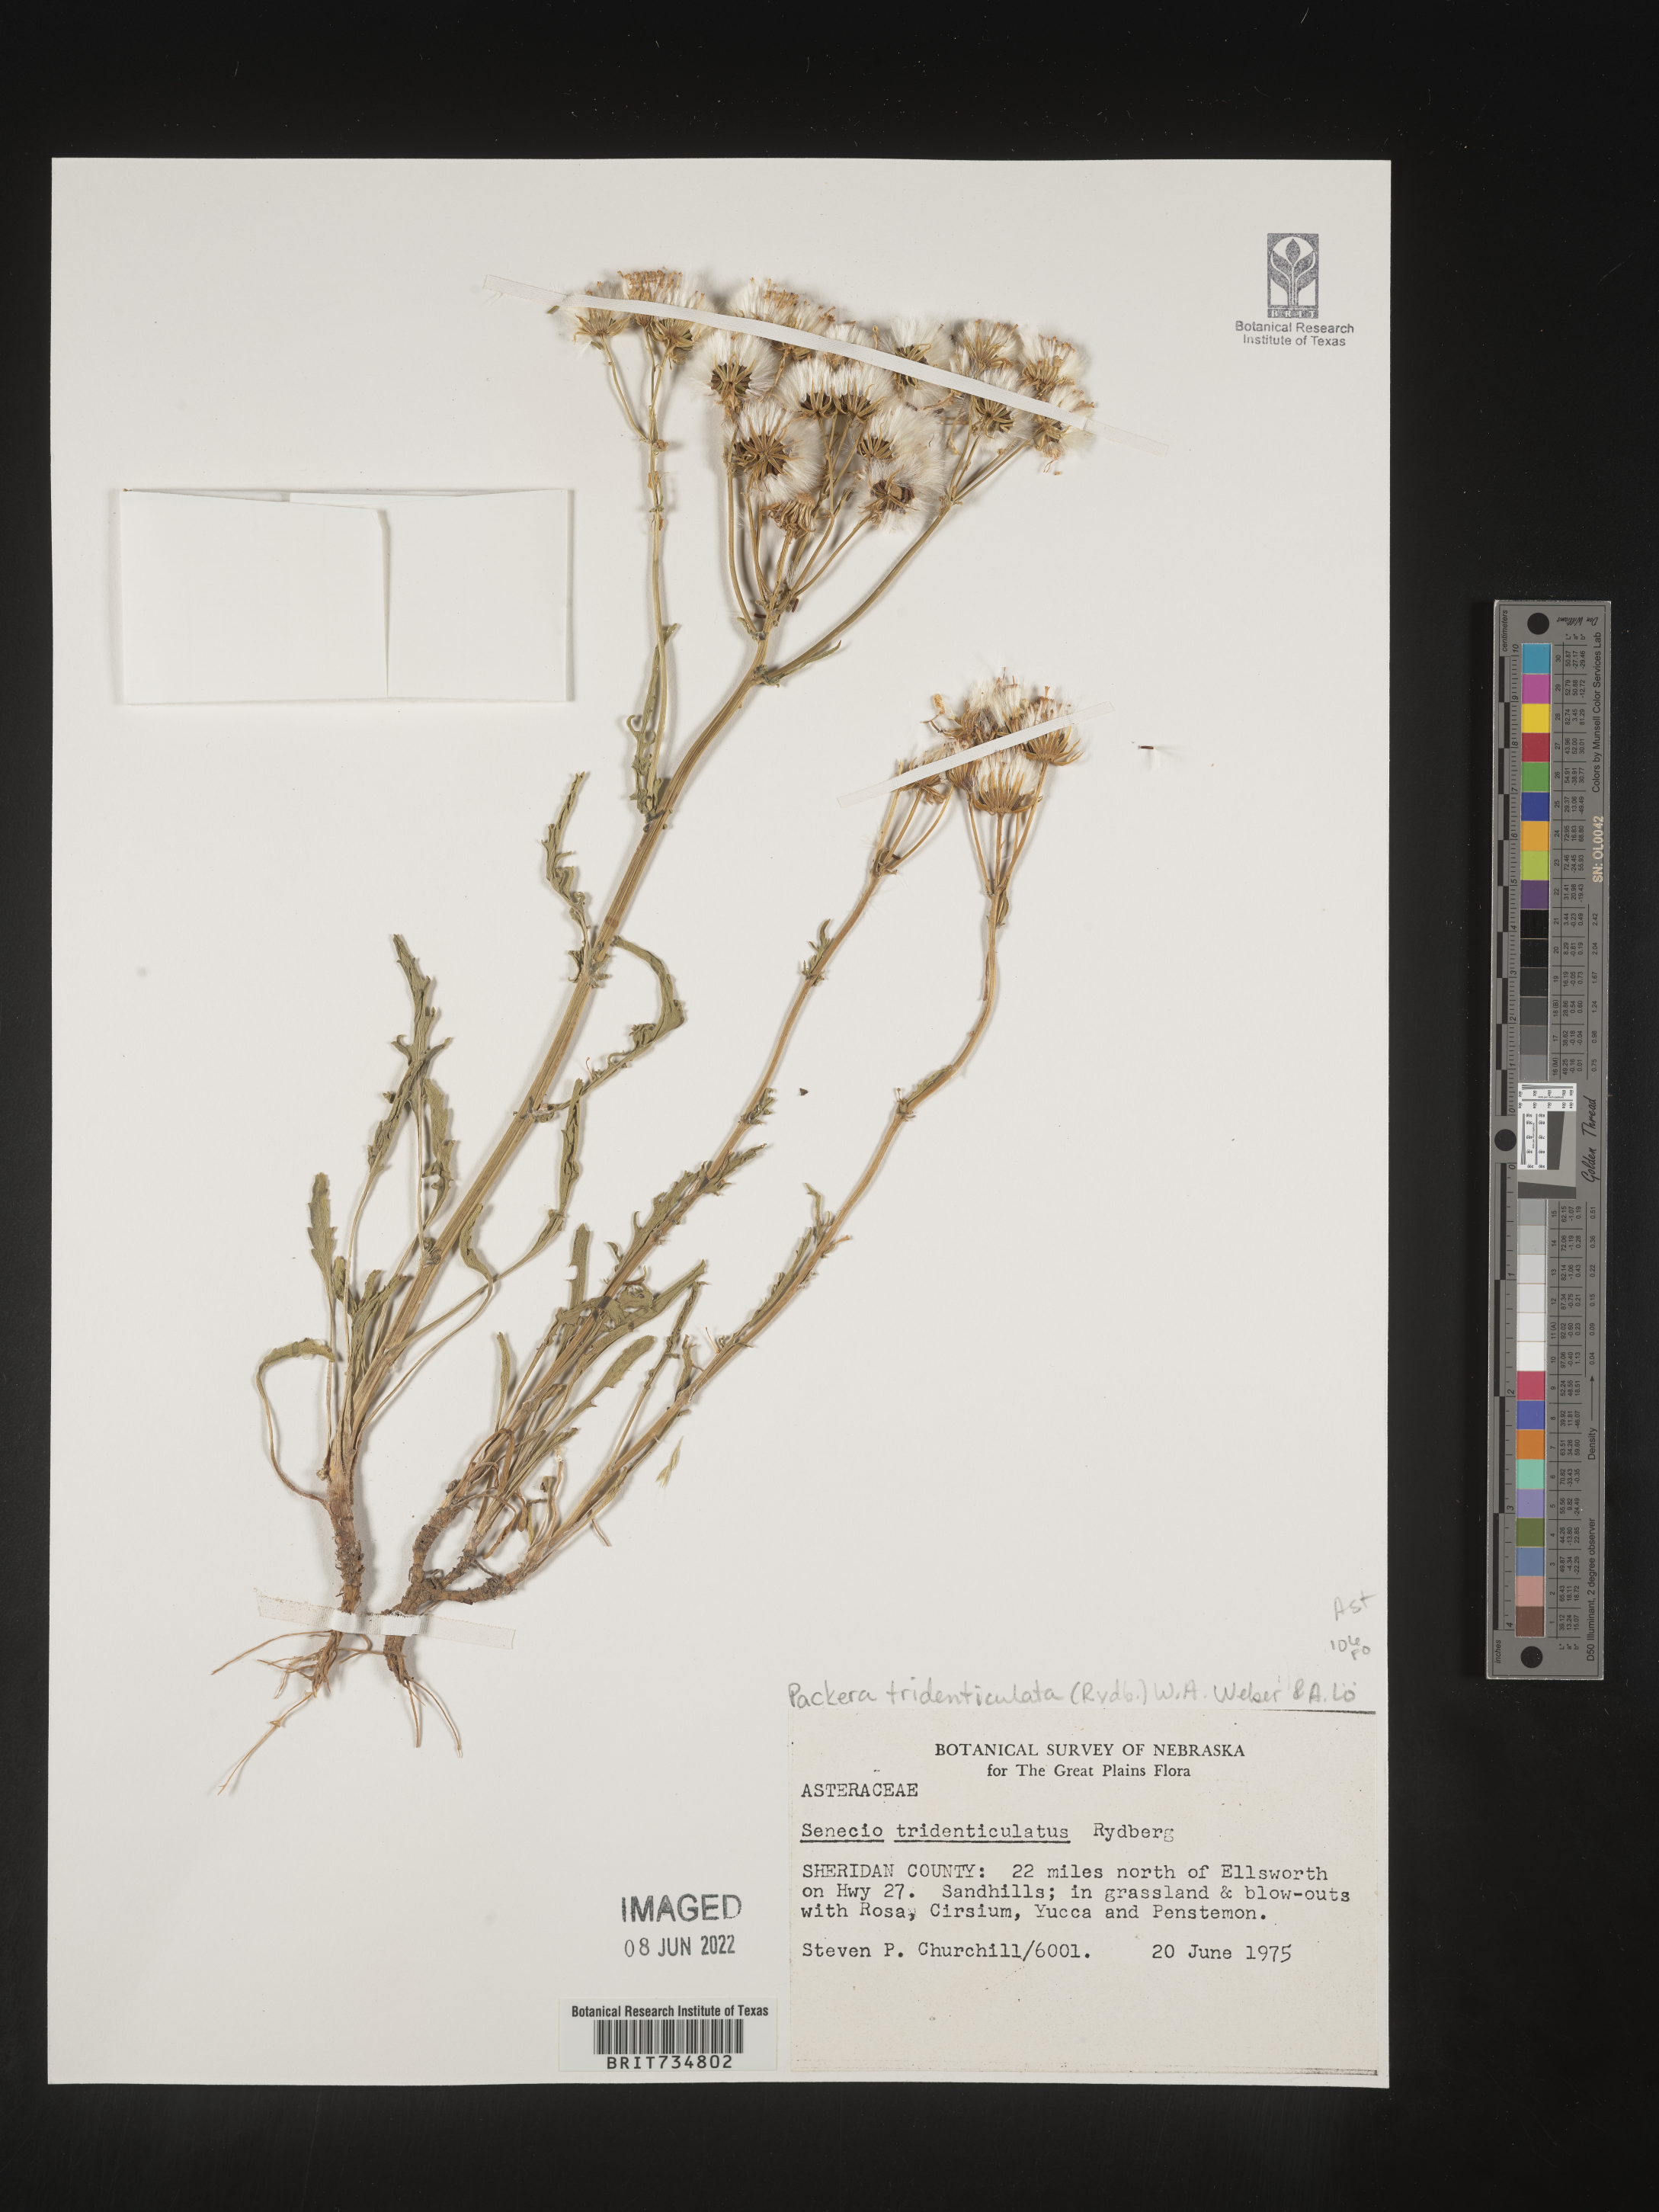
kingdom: Plantae
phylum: Tracheophyta
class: Magnoliopsida
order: Asterales
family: Asteraceae
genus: Packera
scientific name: Packera thurberi
